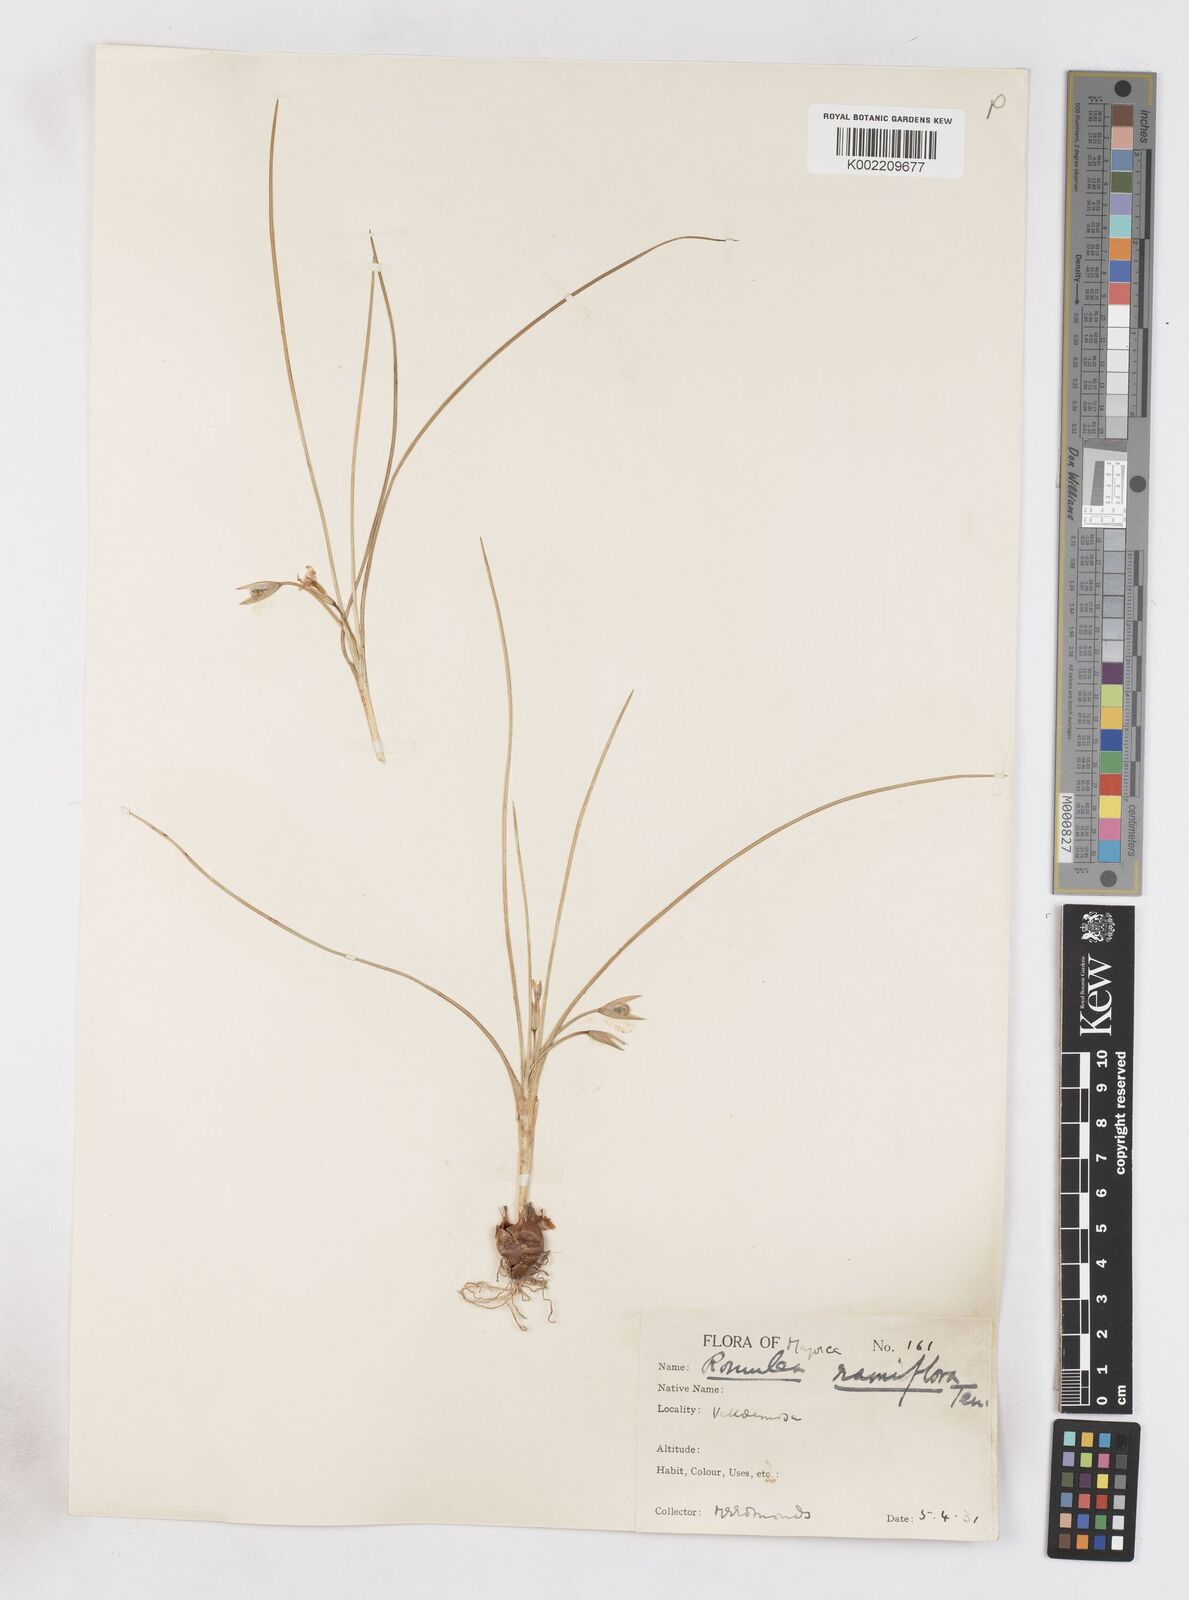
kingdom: Plantae
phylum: Tracheophyta
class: Liliopsida
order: Asparagales
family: Iridaceae
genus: Romulea
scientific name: Romulea ramiflora
